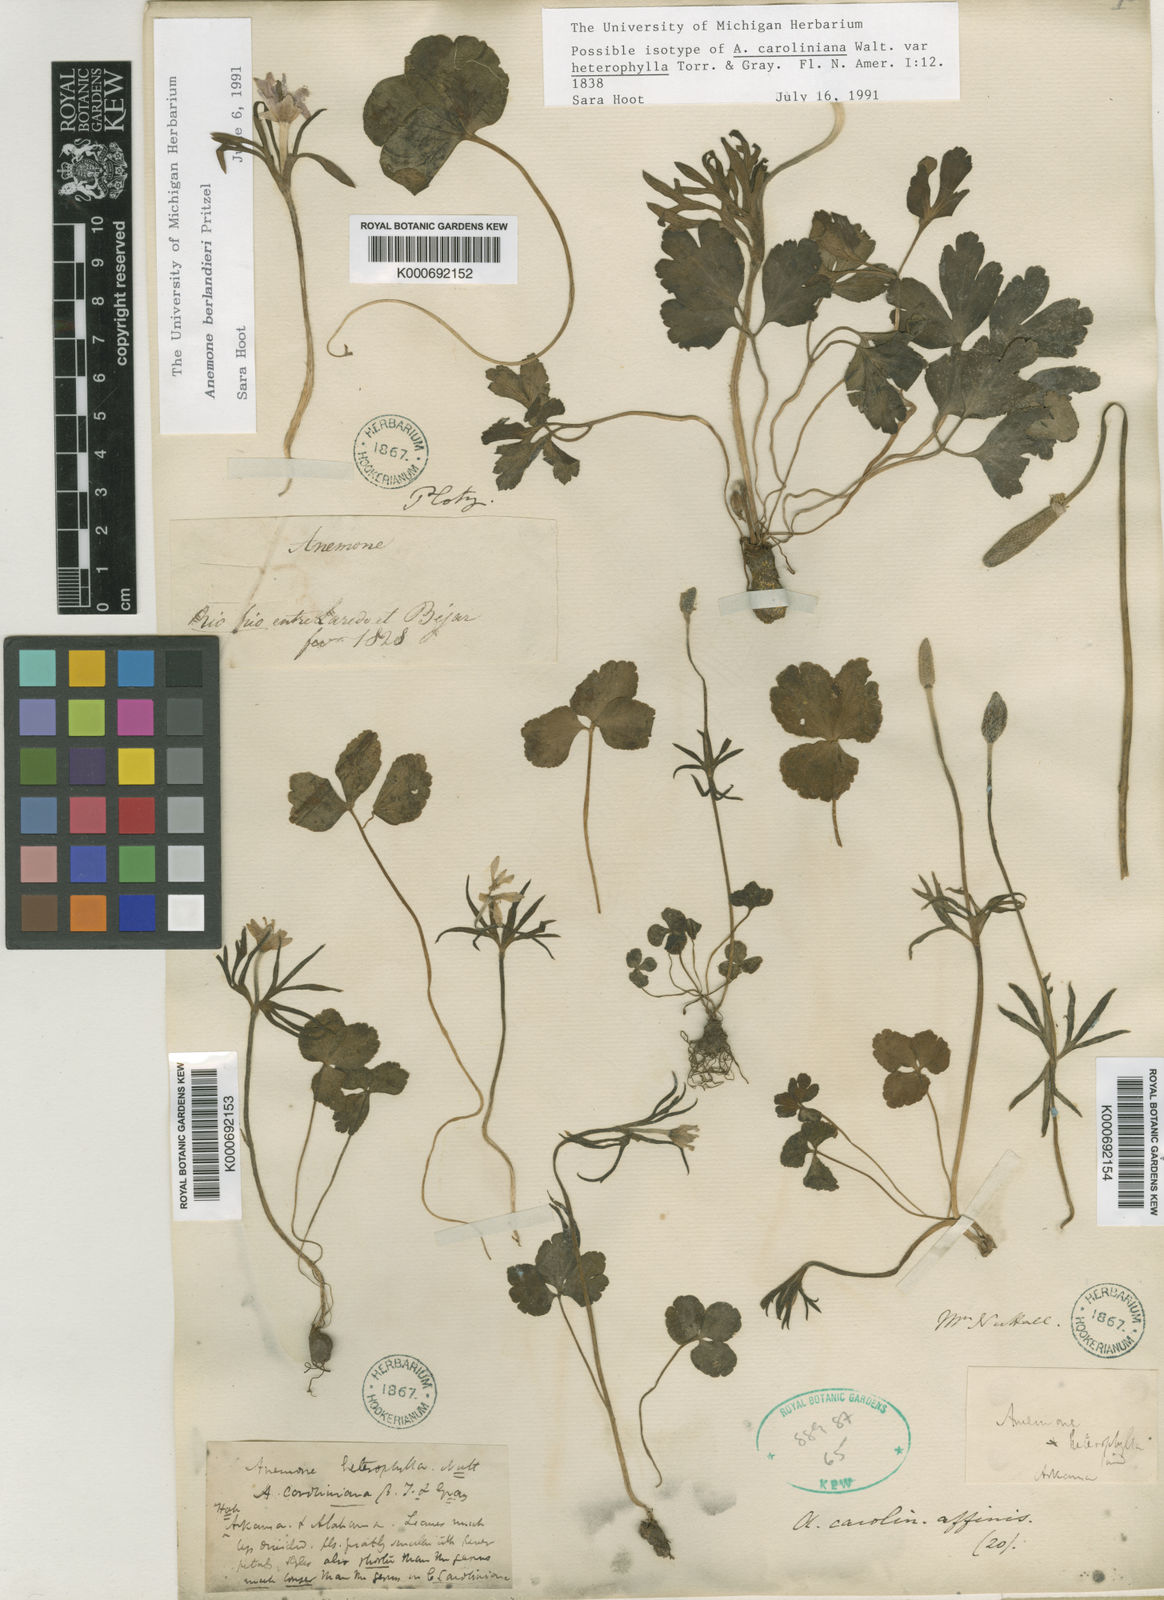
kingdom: Plantae
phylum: Tracheophyta
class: Magnoliopsida
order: Ranunculales
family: Ranunculaceae
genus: Anemone
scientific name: Anemone decapetala
